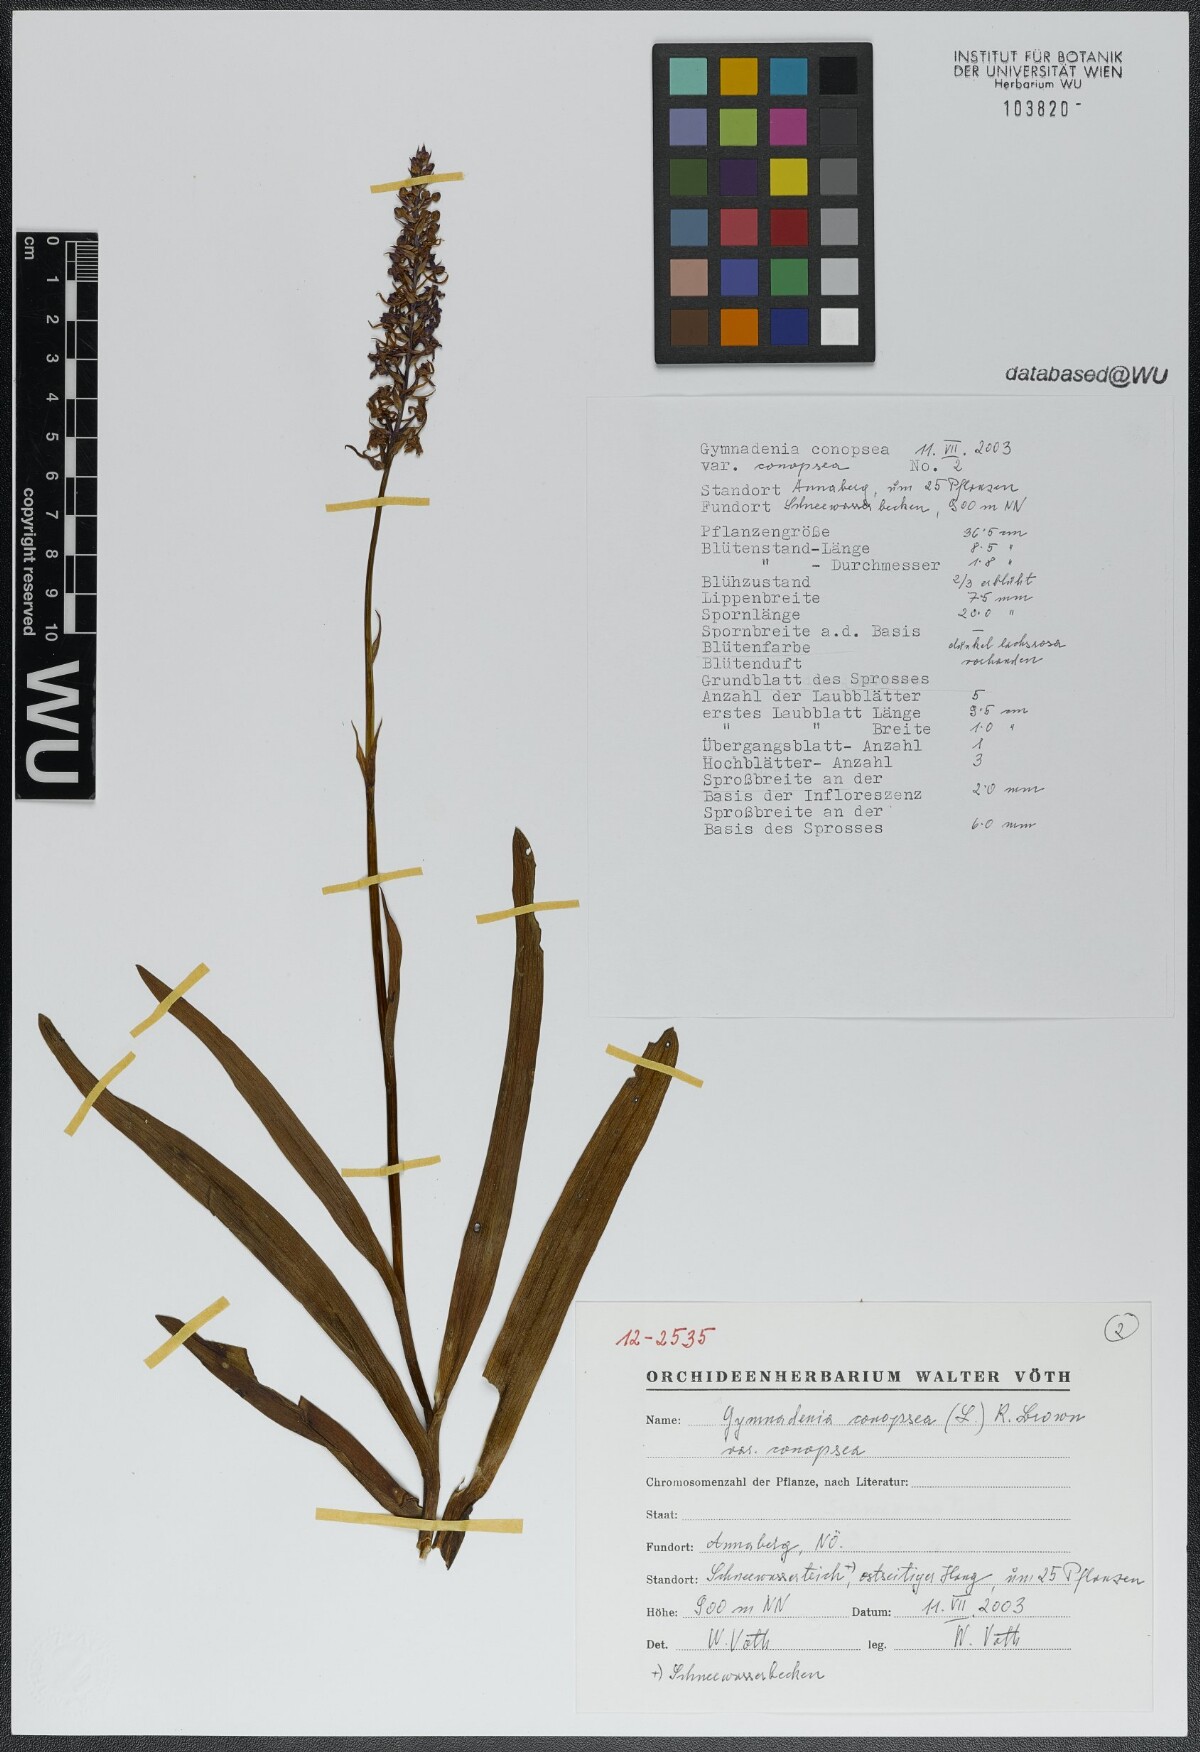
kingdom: Plantae
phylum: Tracheophyta
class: Liliopsida
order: Asparagales
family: Orchidaceae
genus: Gymnadenia
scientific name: Gymnadenia conopsea
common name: Fragrant orchid
